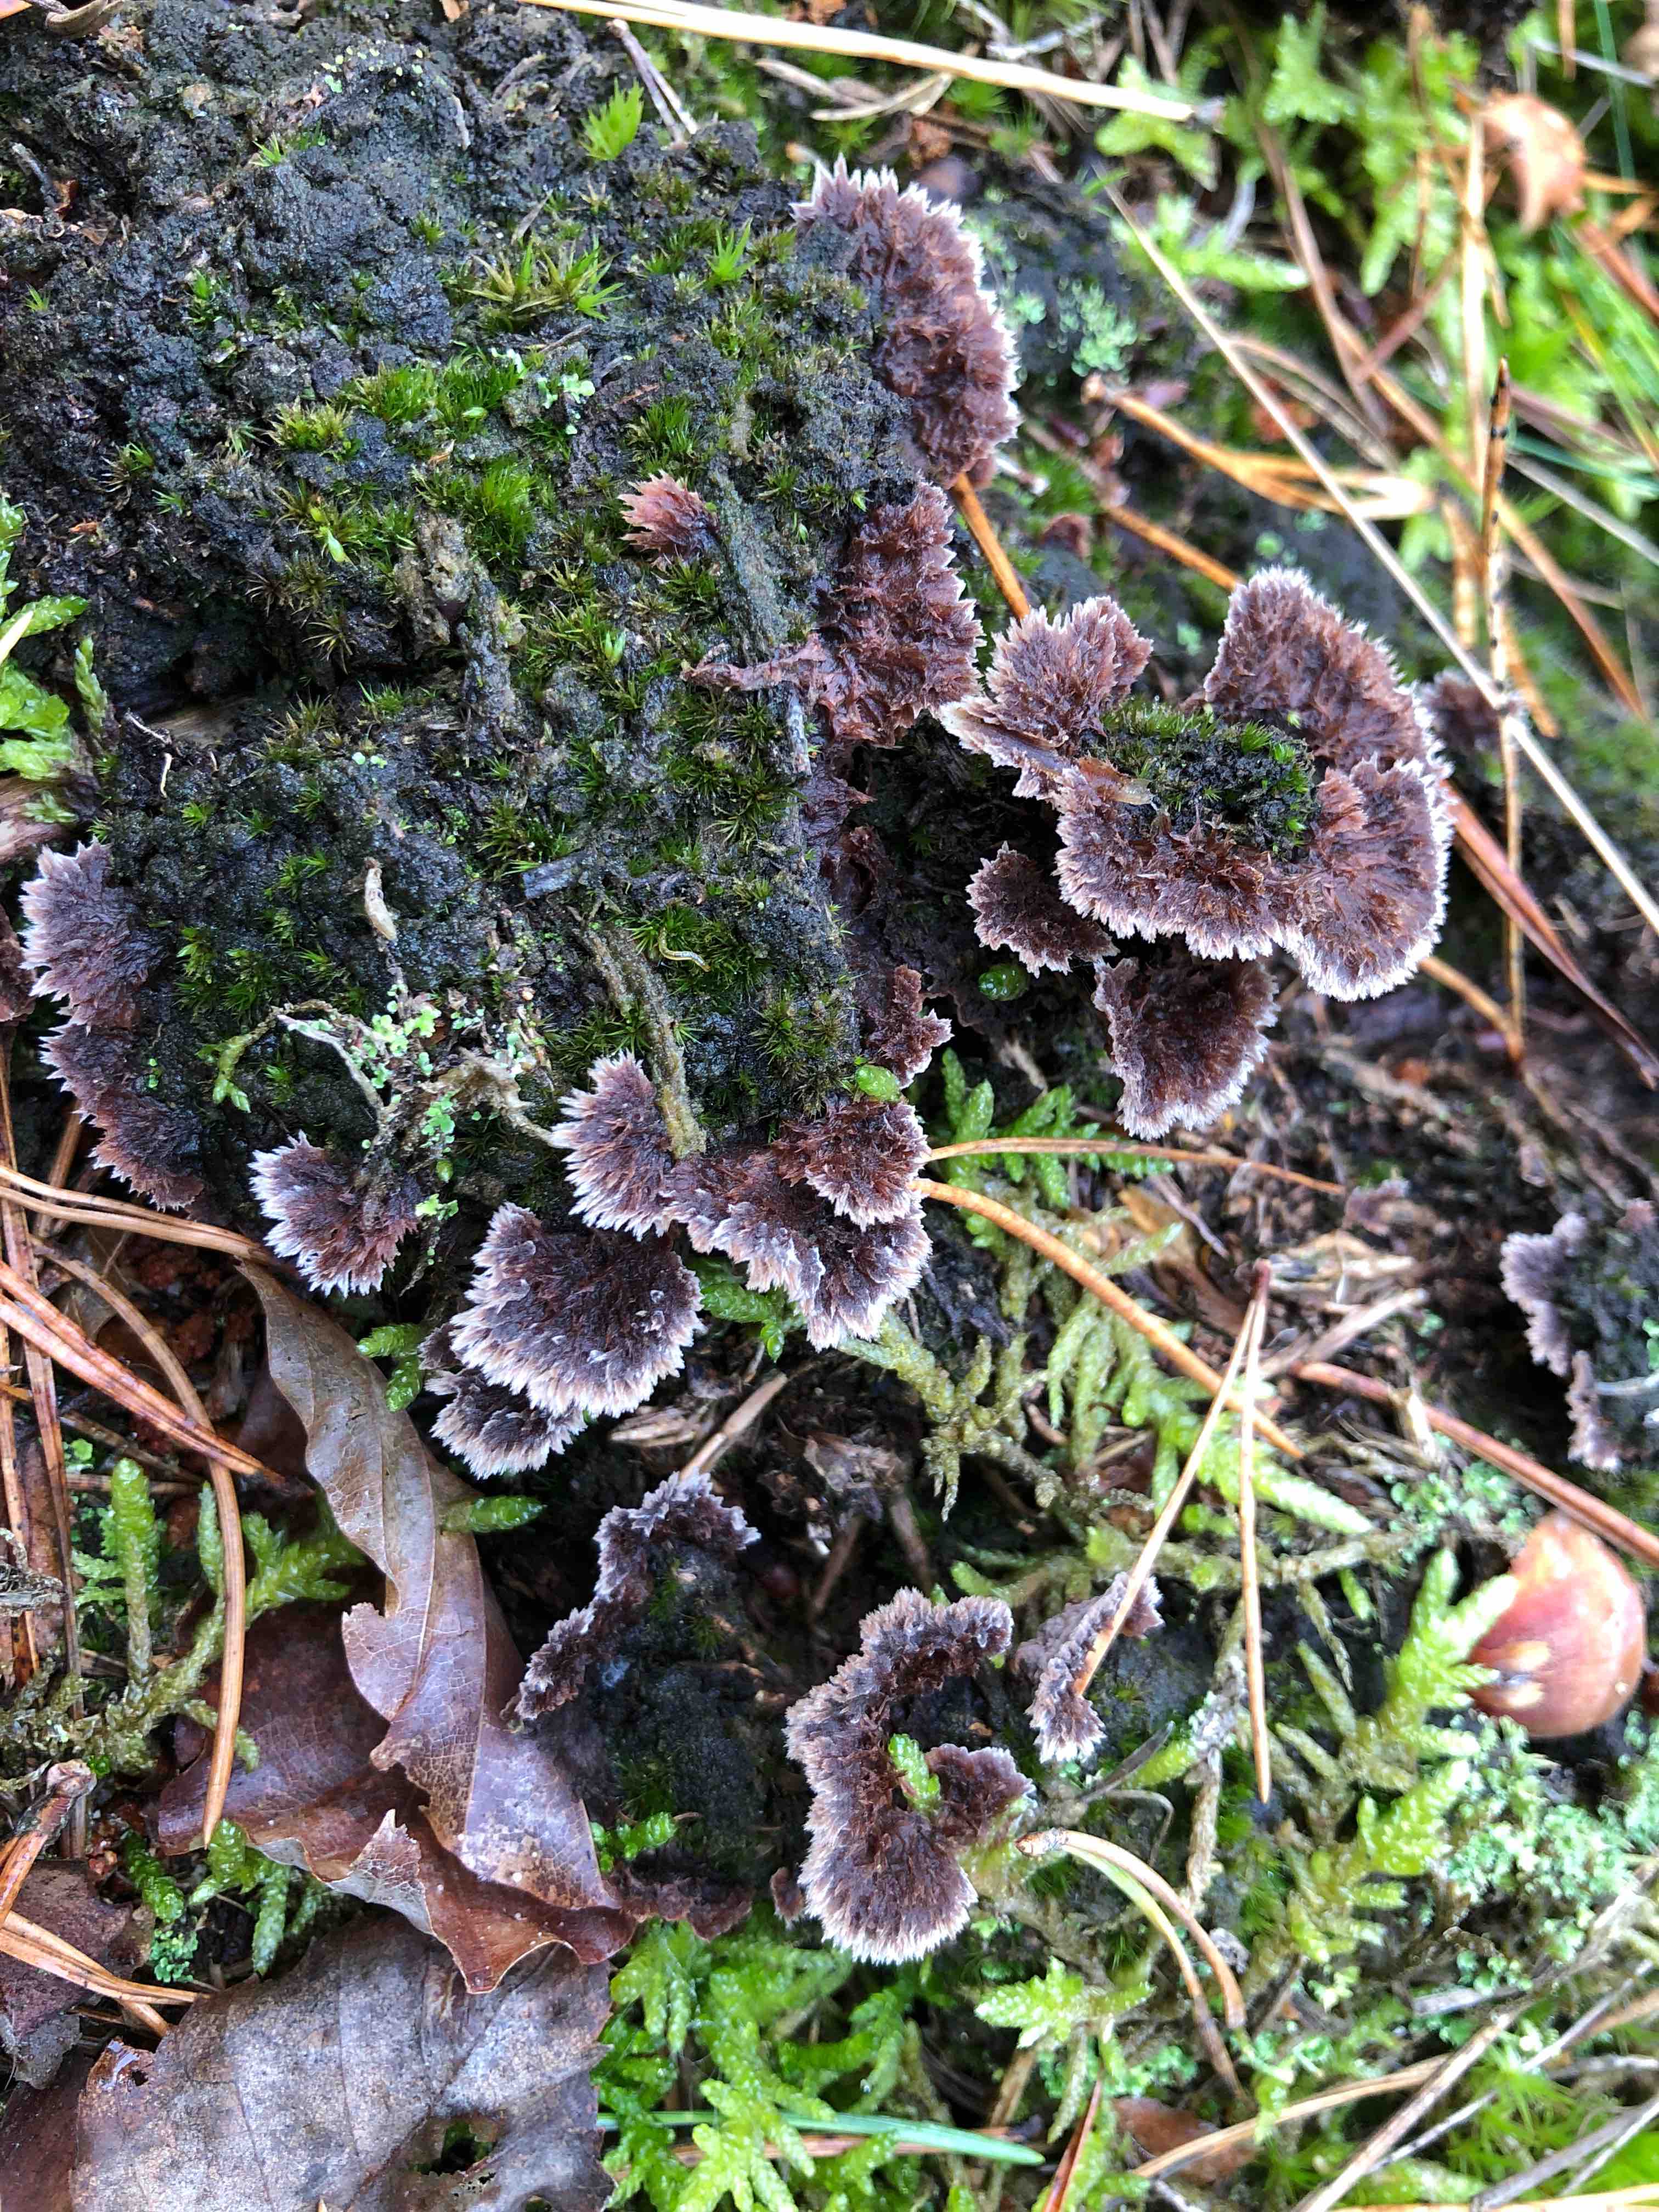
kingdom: Fungi
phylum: Basidiomycota
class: Agaricomycetes
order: Thelephorales
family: Thelephoraceae
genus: Thelephora
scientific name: Thelephora terrestris
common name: fliget frynsesvamp
